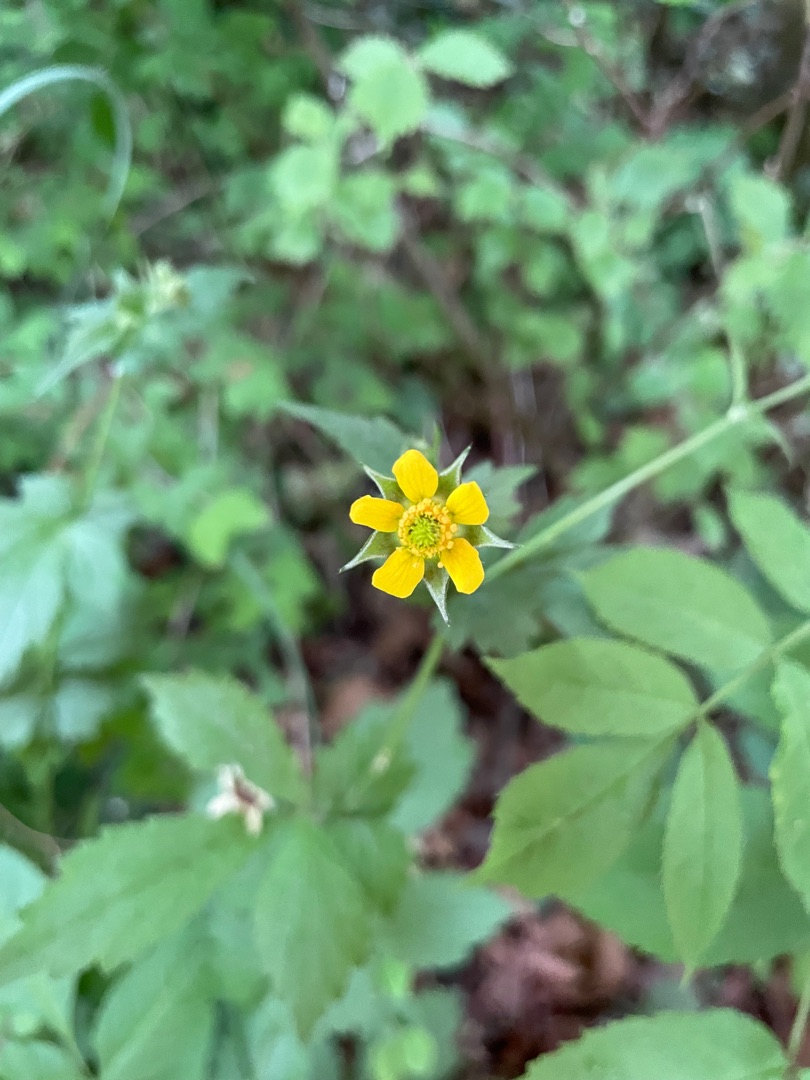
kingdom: Plantae
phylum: Tracheophyta
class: Magnoliopsida
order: Rosales
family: Rosaceae
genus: Geum
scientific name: Geum urbanum
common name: Feber-nellikerod
